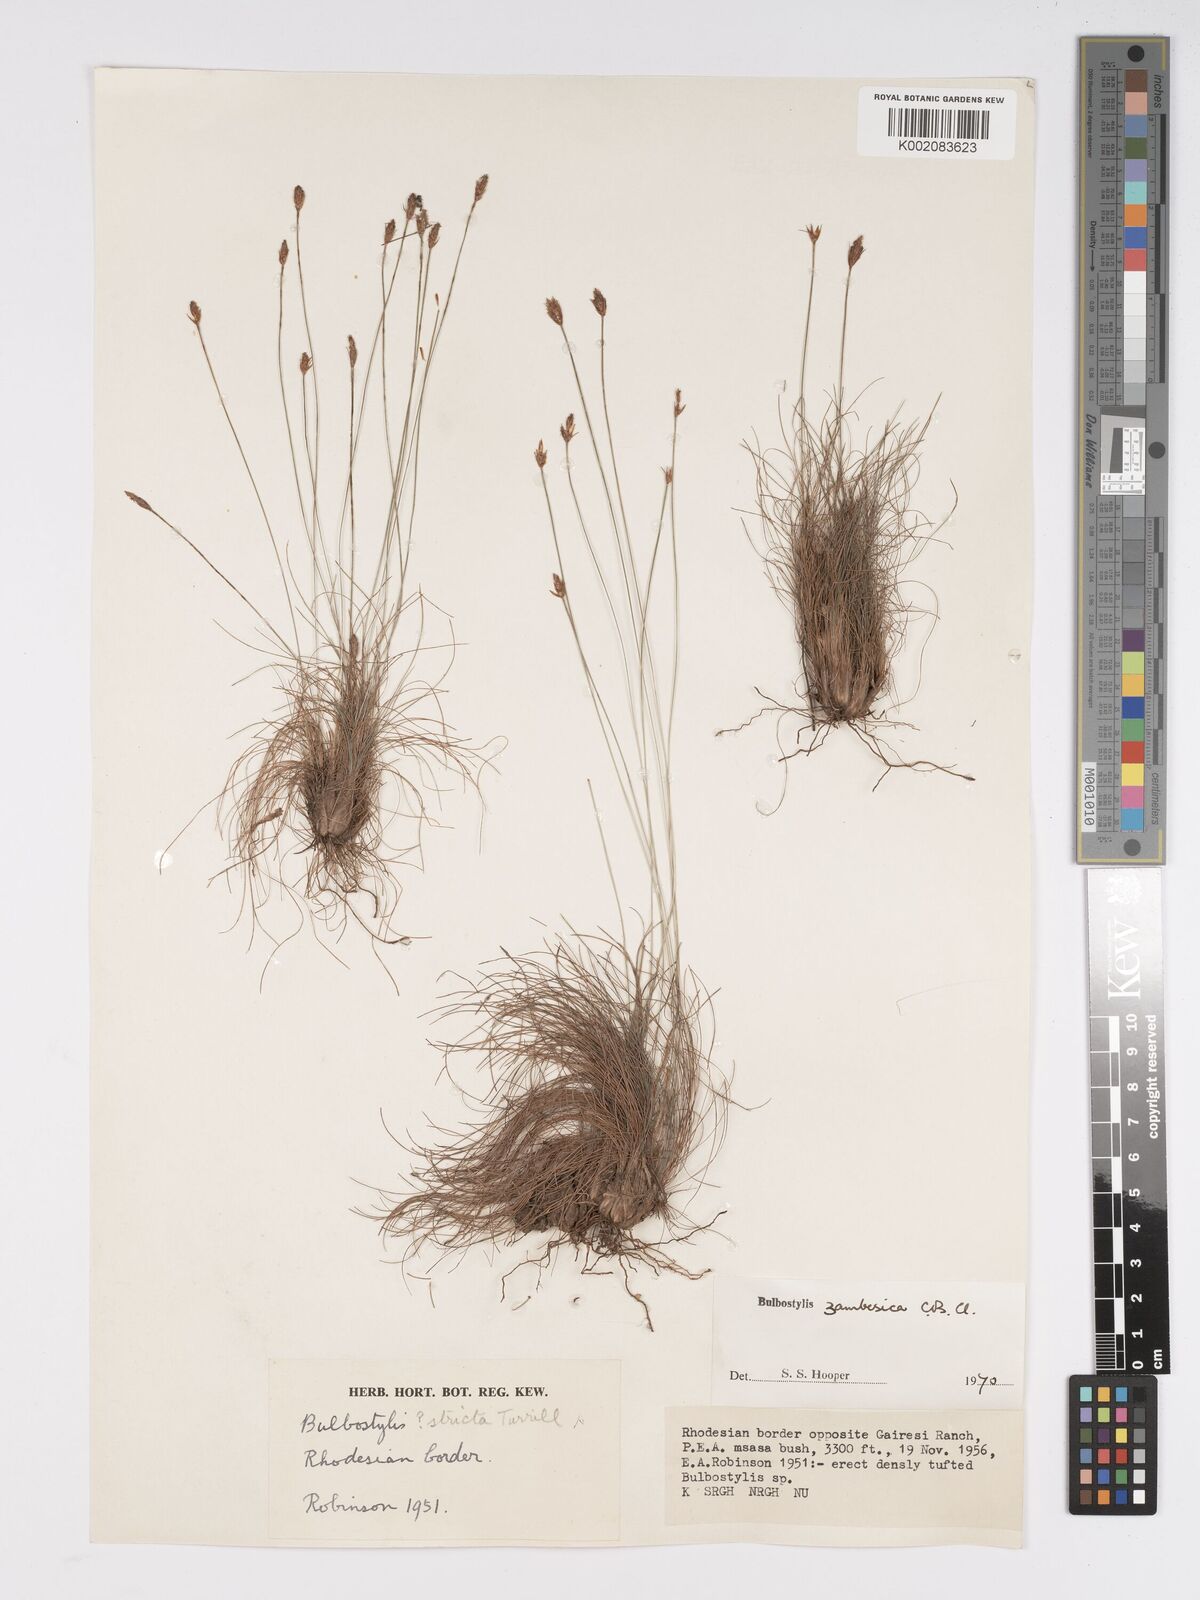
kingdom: Plantae
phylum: Tracheophyta
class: Liliopsida
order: Poales
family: Cyperaceae
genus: Bulbostylis
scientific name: Bulbostylis macra
